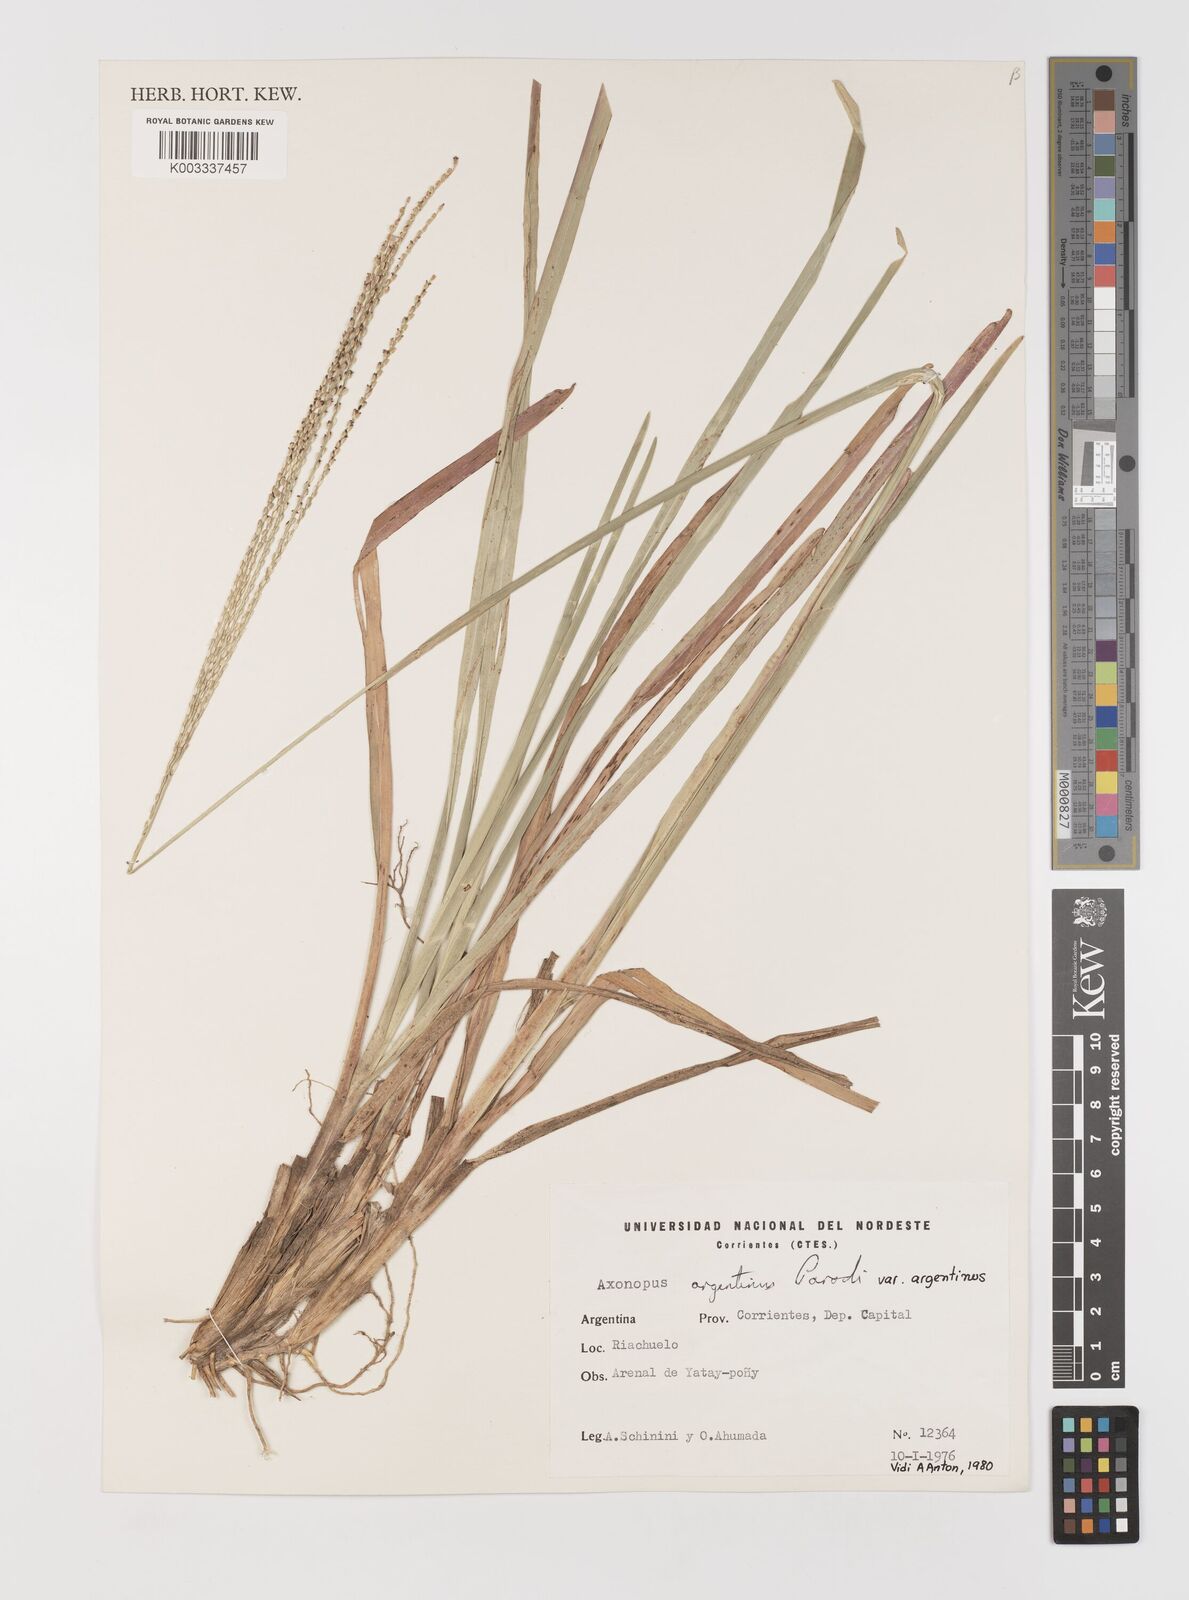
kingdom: Plantae
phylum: Tracheophyta
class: Liliopsida
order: Poales
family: Poaceae
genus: Axonopus
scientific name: Axonopus argentinus
